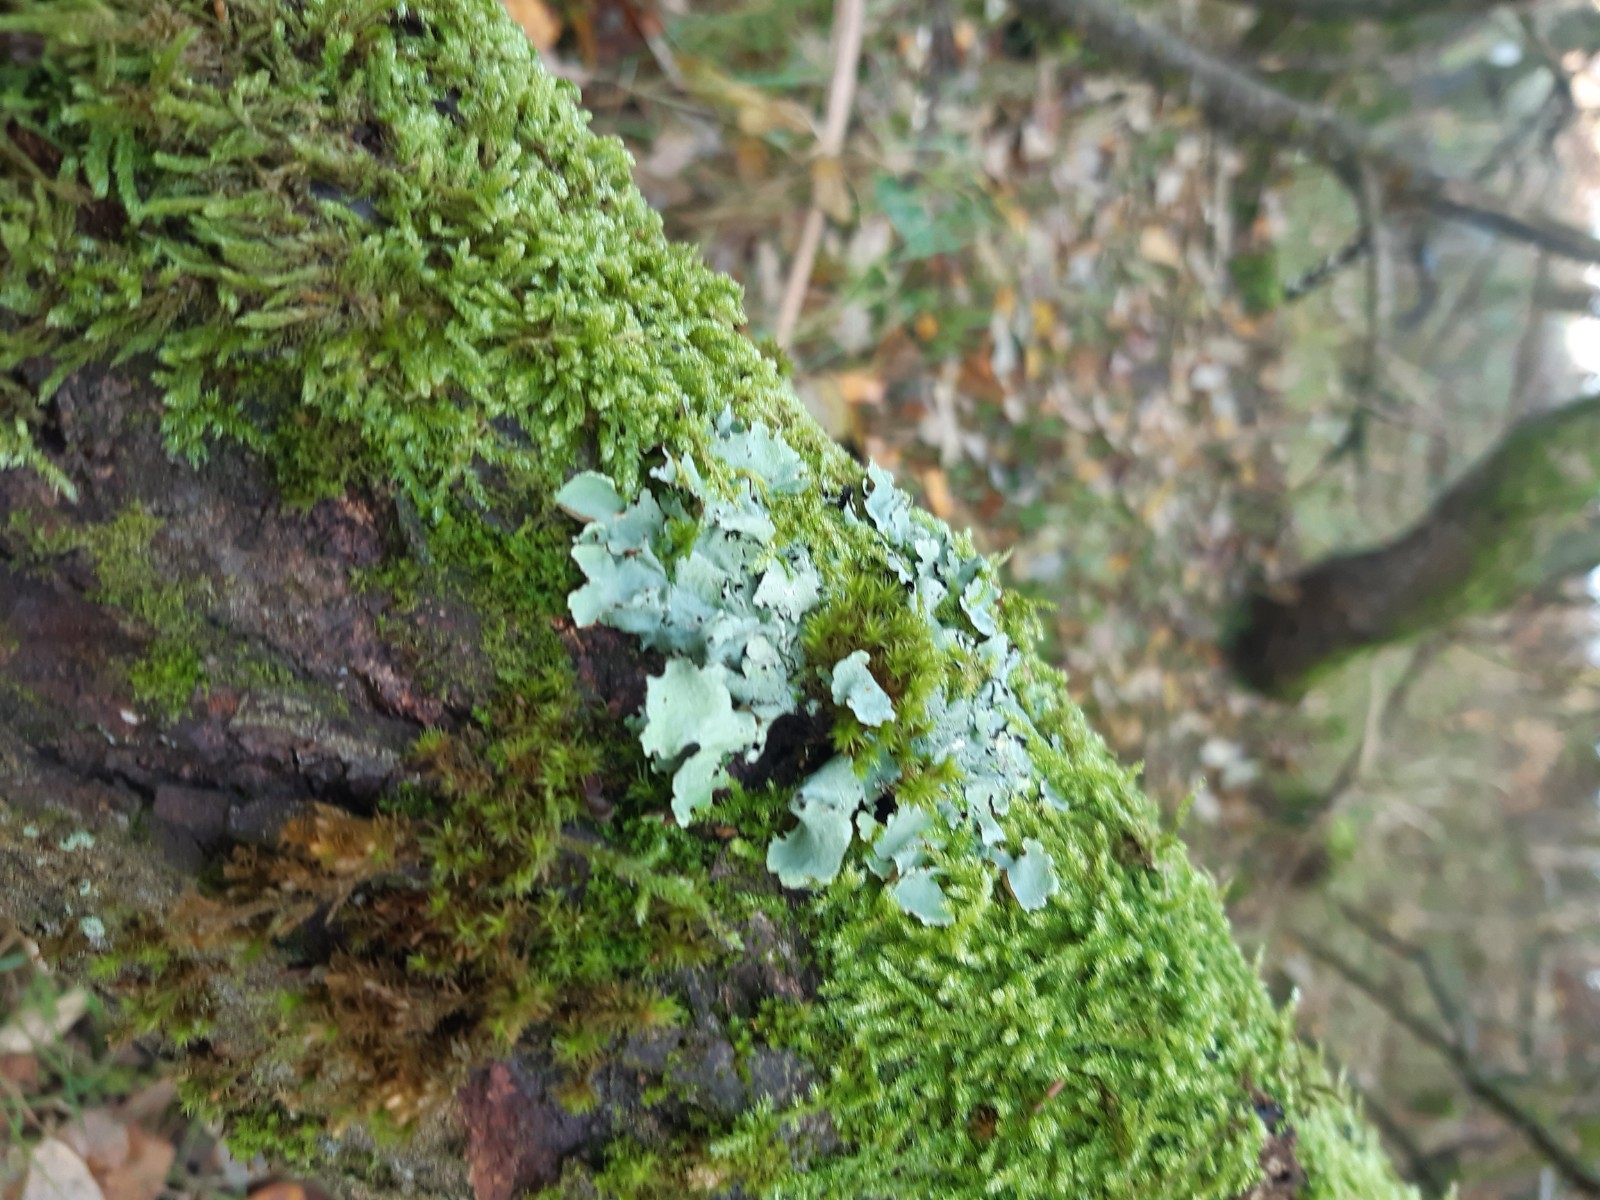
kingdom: Fungi
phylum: Ascomycota
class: Lecanoromycetes
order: Lecanorales
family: Parmeliaceae
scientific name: Parmeliaceae
